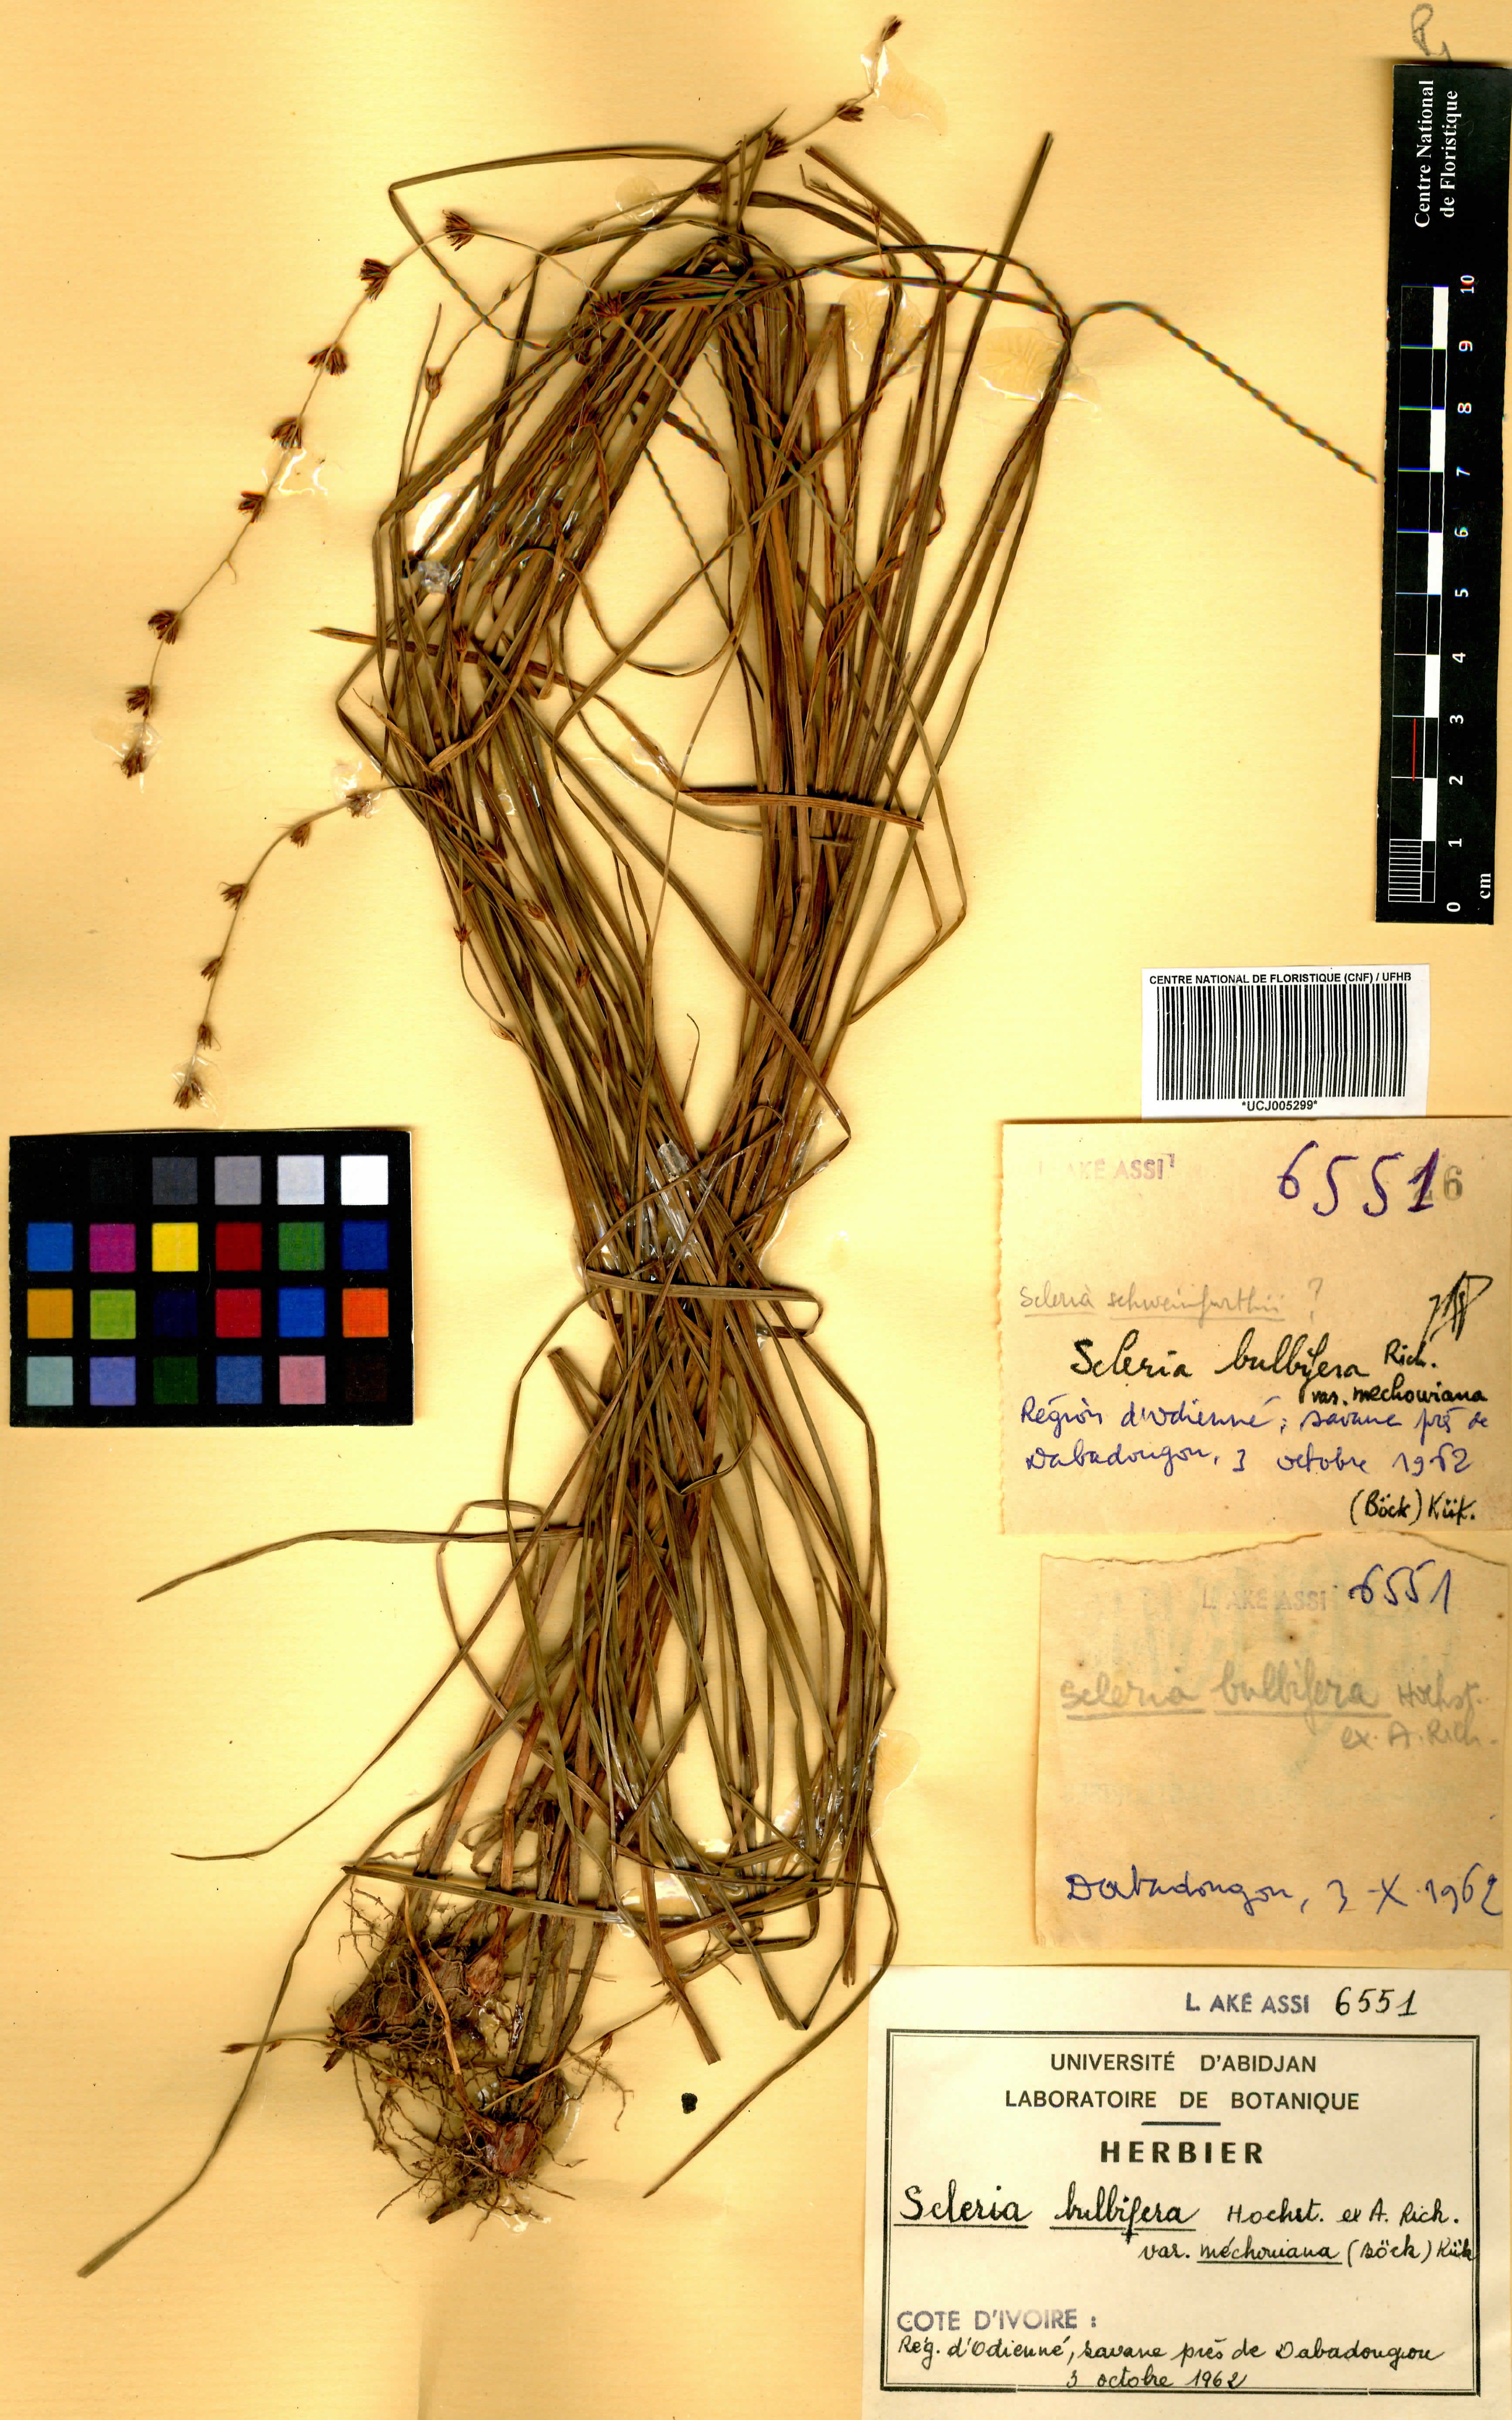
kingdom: Plantae
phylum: Tracheophyta
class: Liliopsida
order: Poales
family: Cyperaceae
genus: Scleria
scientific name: Scleria bulbifera
